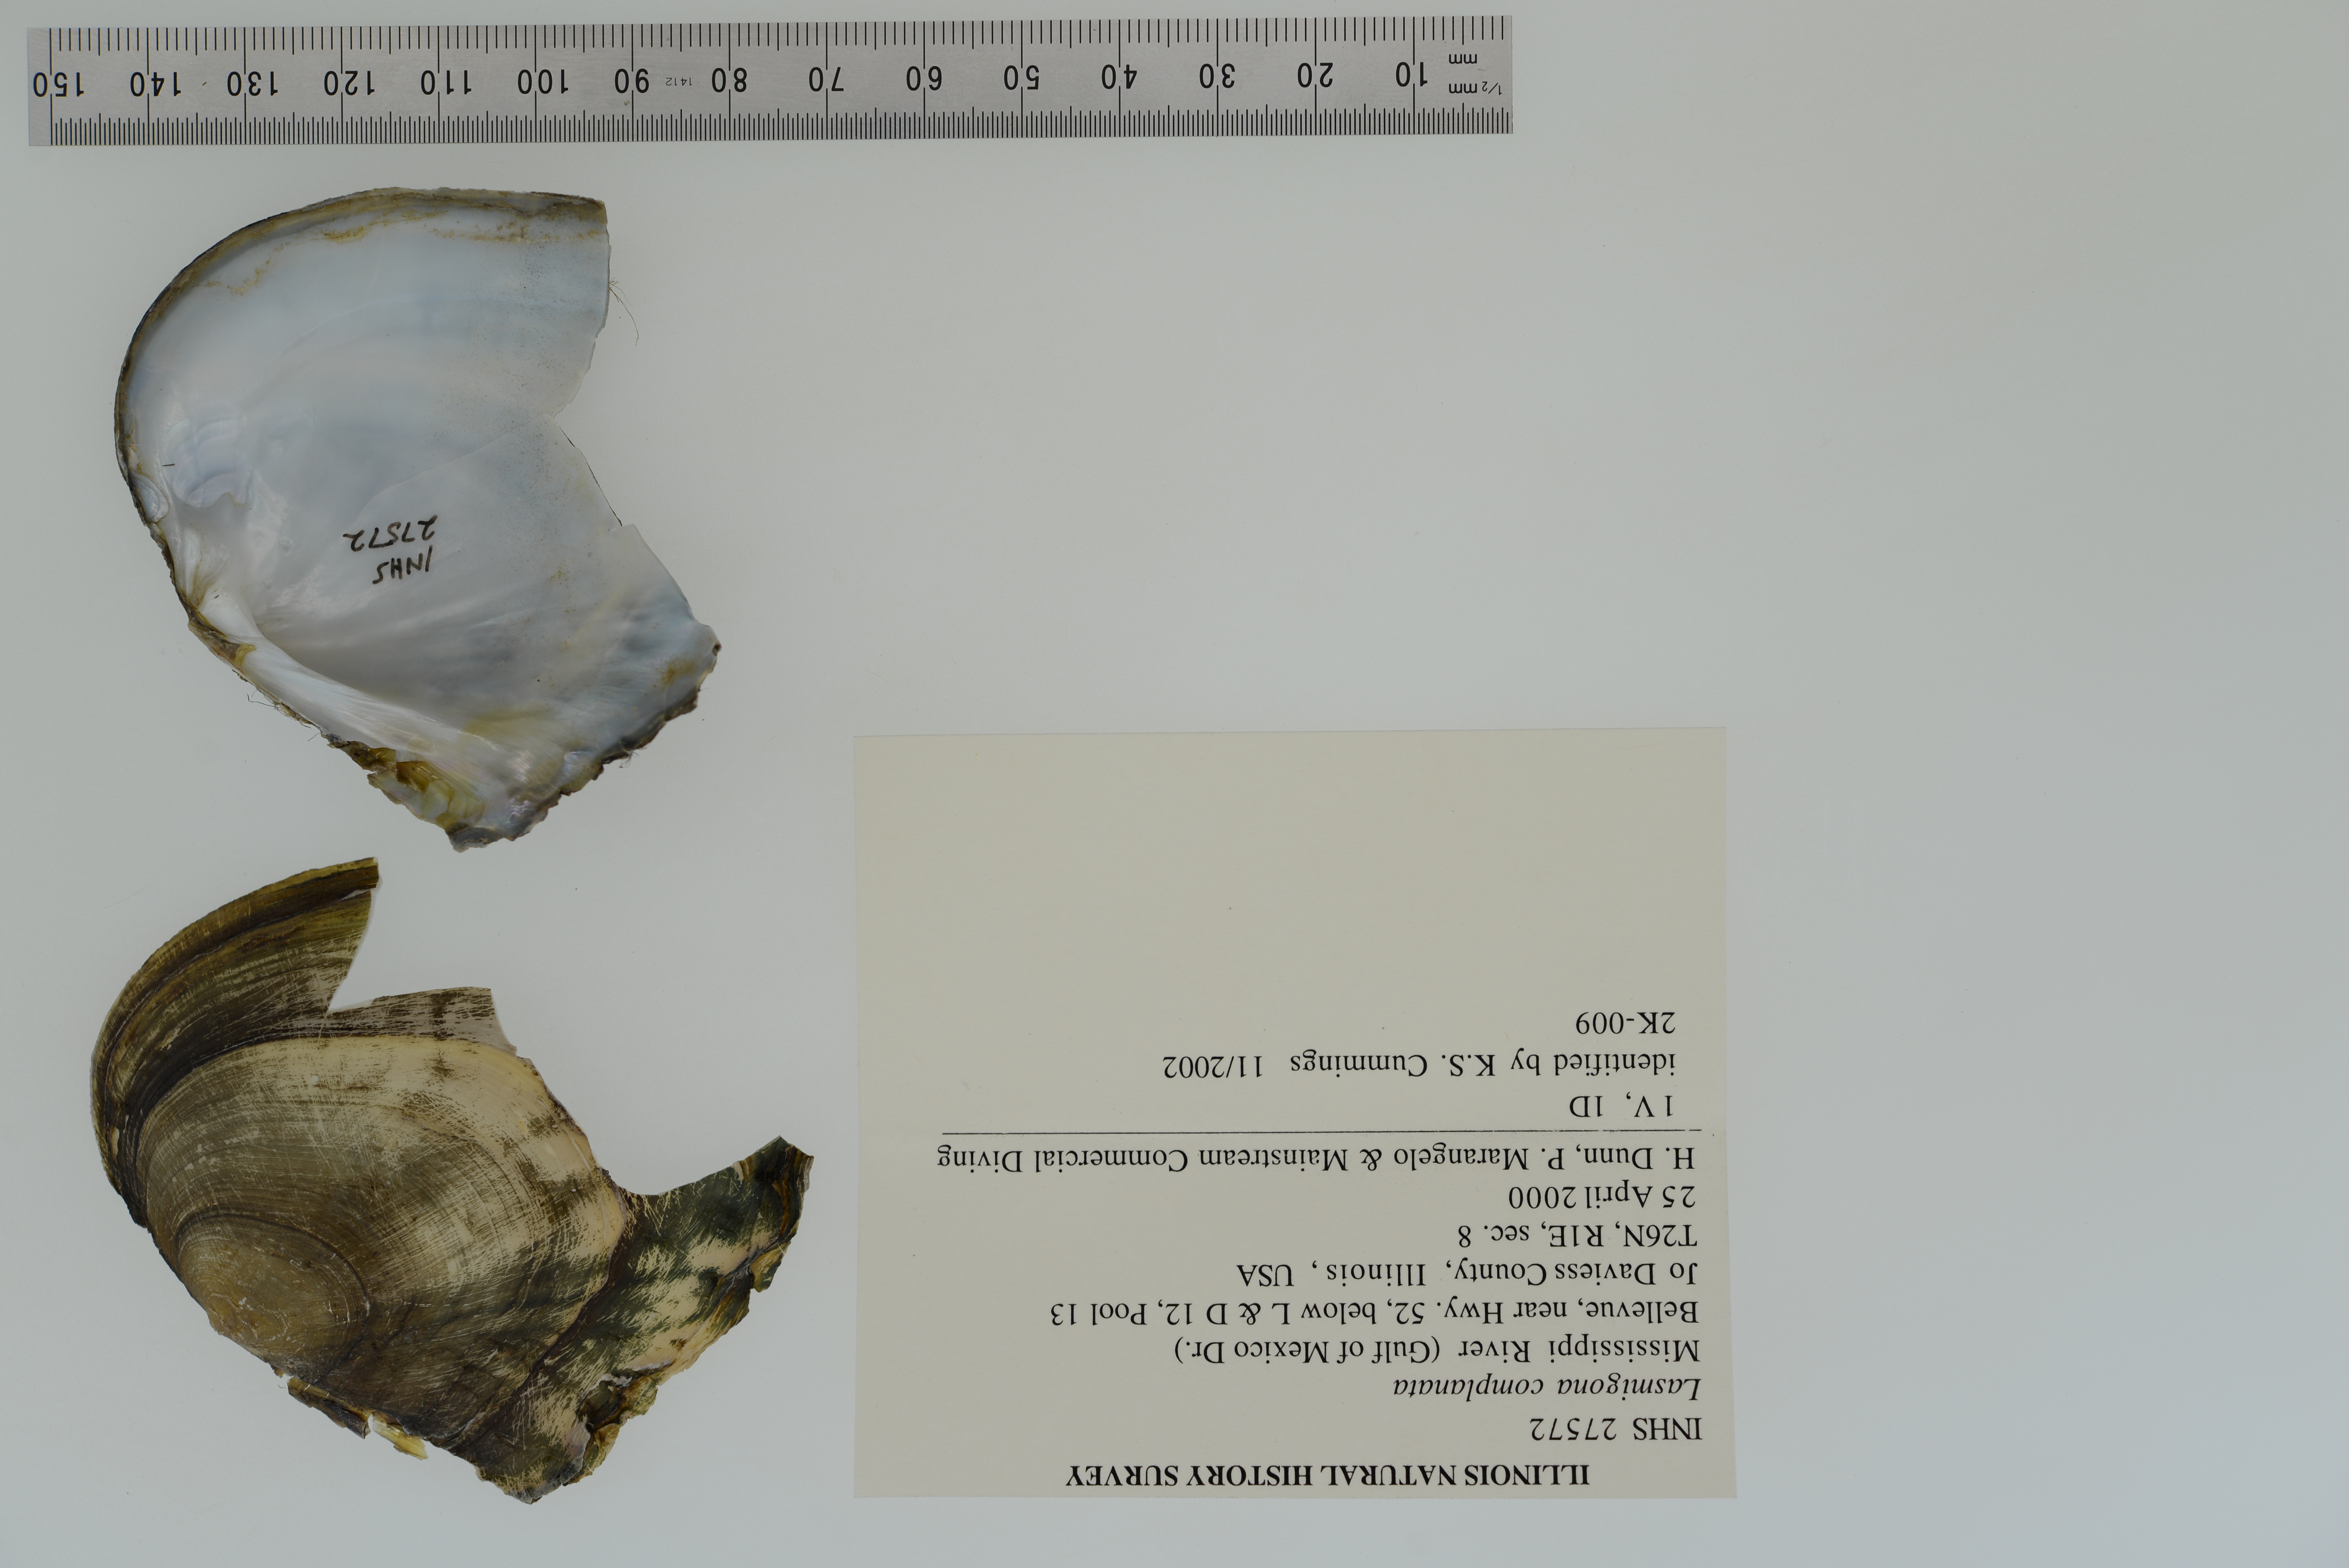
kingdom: Animalia
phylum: Mollusca
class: Bivalvia
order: Unionida
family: Unionidae
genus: Lasmigona
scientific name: Lasmigona complanata
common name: White heelsplitter
